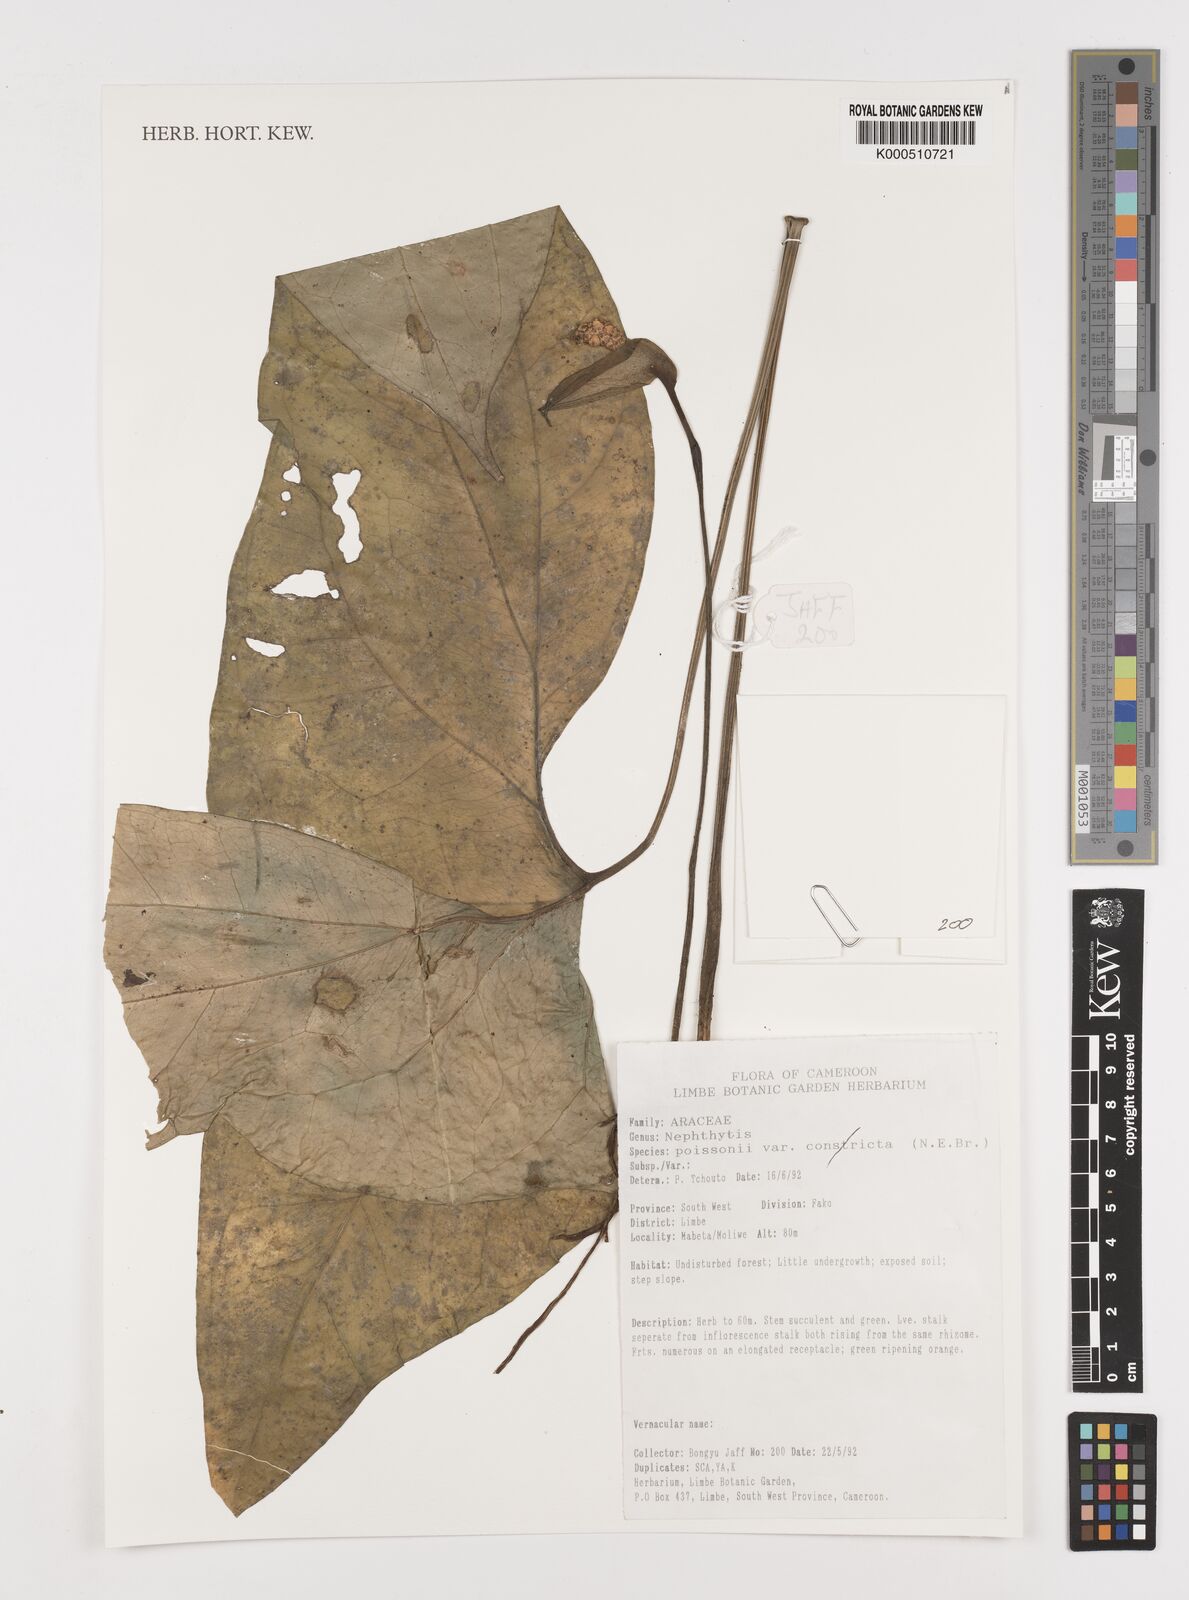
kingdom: Plantae
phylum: Tracheophyta
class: Liliopsida
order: Alismatales
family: Araceae
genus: Nephthytis
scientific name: Nephthytis poissonii
